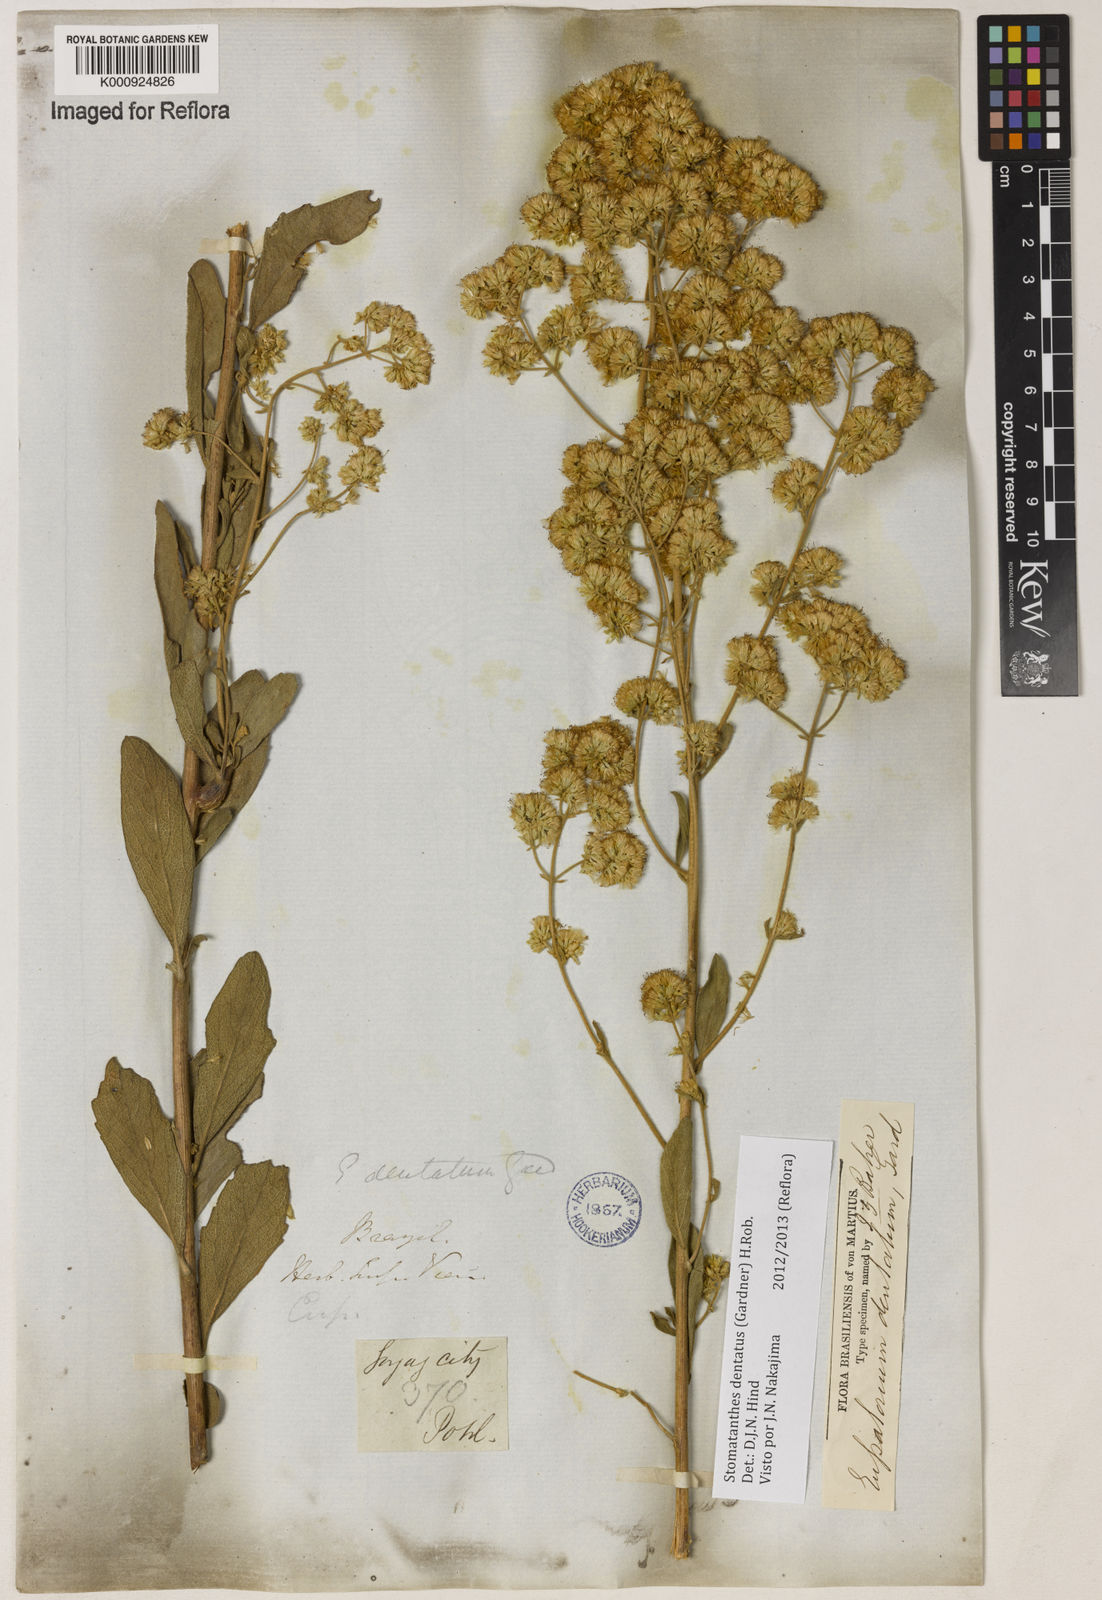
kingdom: Plantae
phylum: Tracheophyta
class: Magnoliopsida
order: Asterales
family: Asteraceae
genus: Stomatanthes
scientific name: Stomatanthes dentatus
